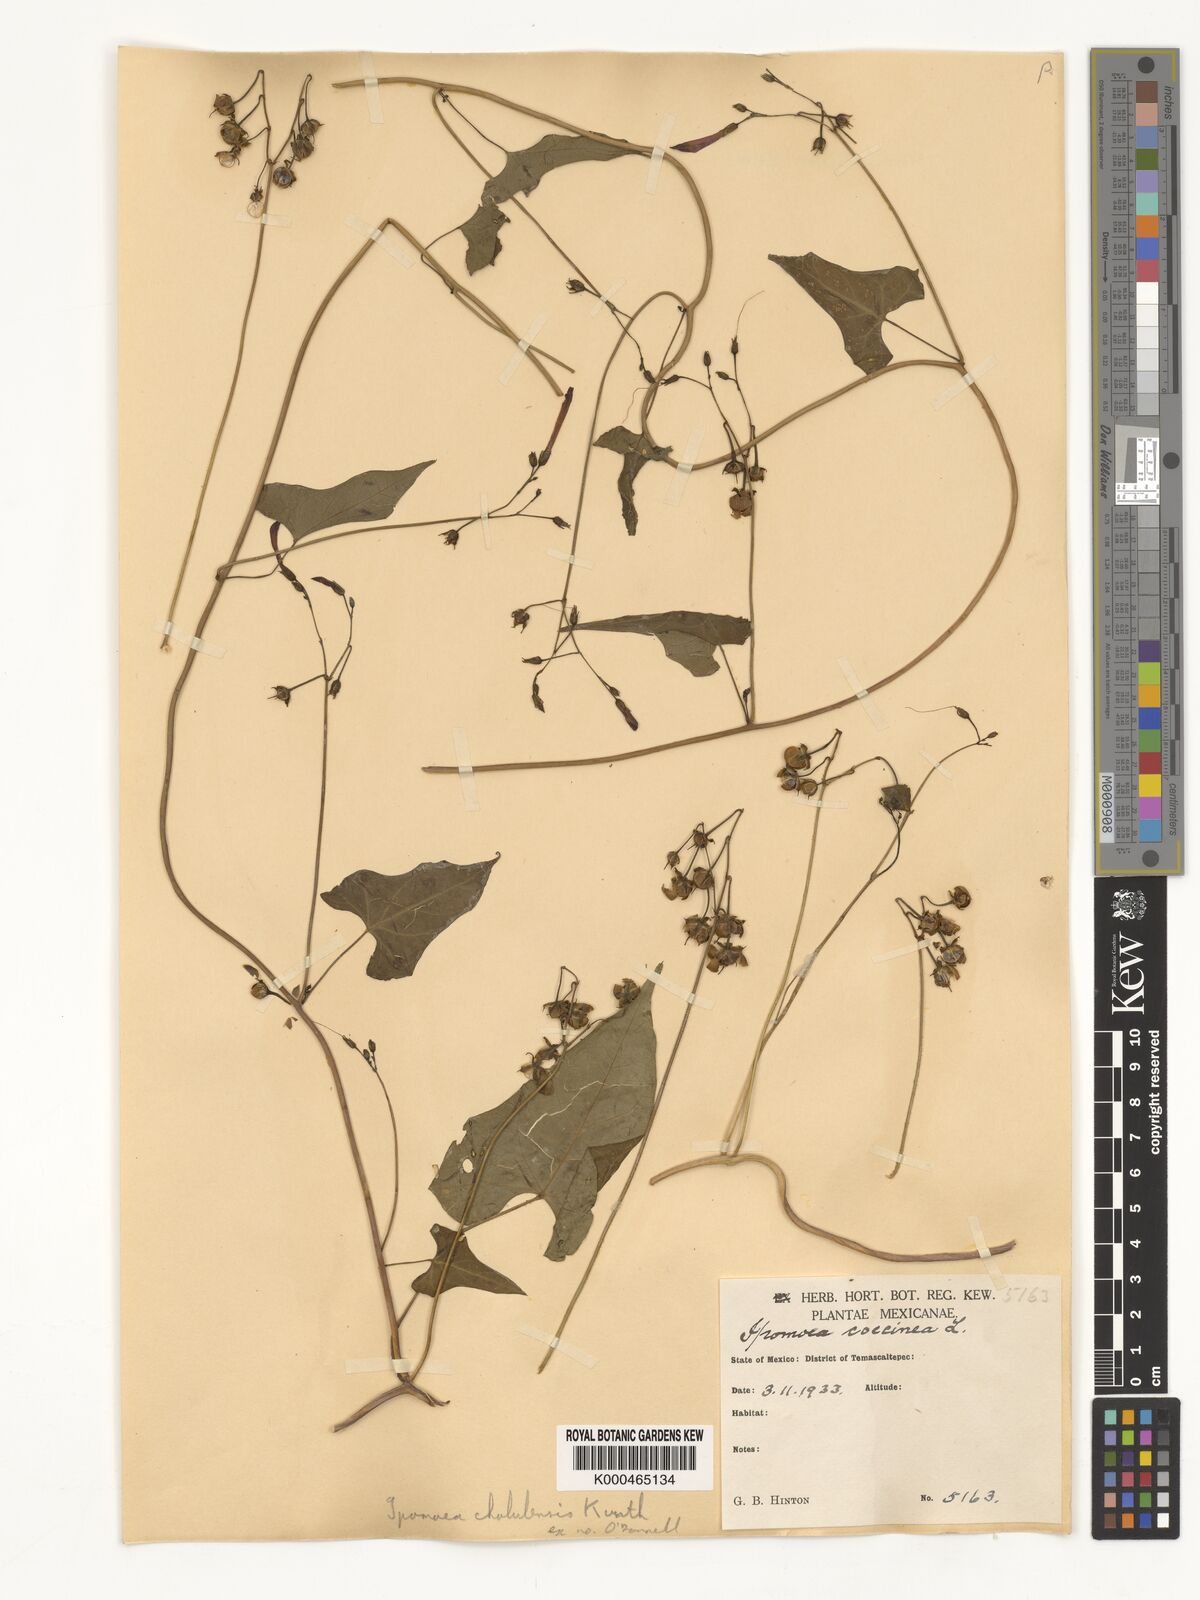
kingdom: Plantae
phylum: Tracheophyta
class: Magnoliopsida
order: Solanales
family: Convolvulaceae
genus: Ipomoea
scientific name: Ipomoea cholulensis
